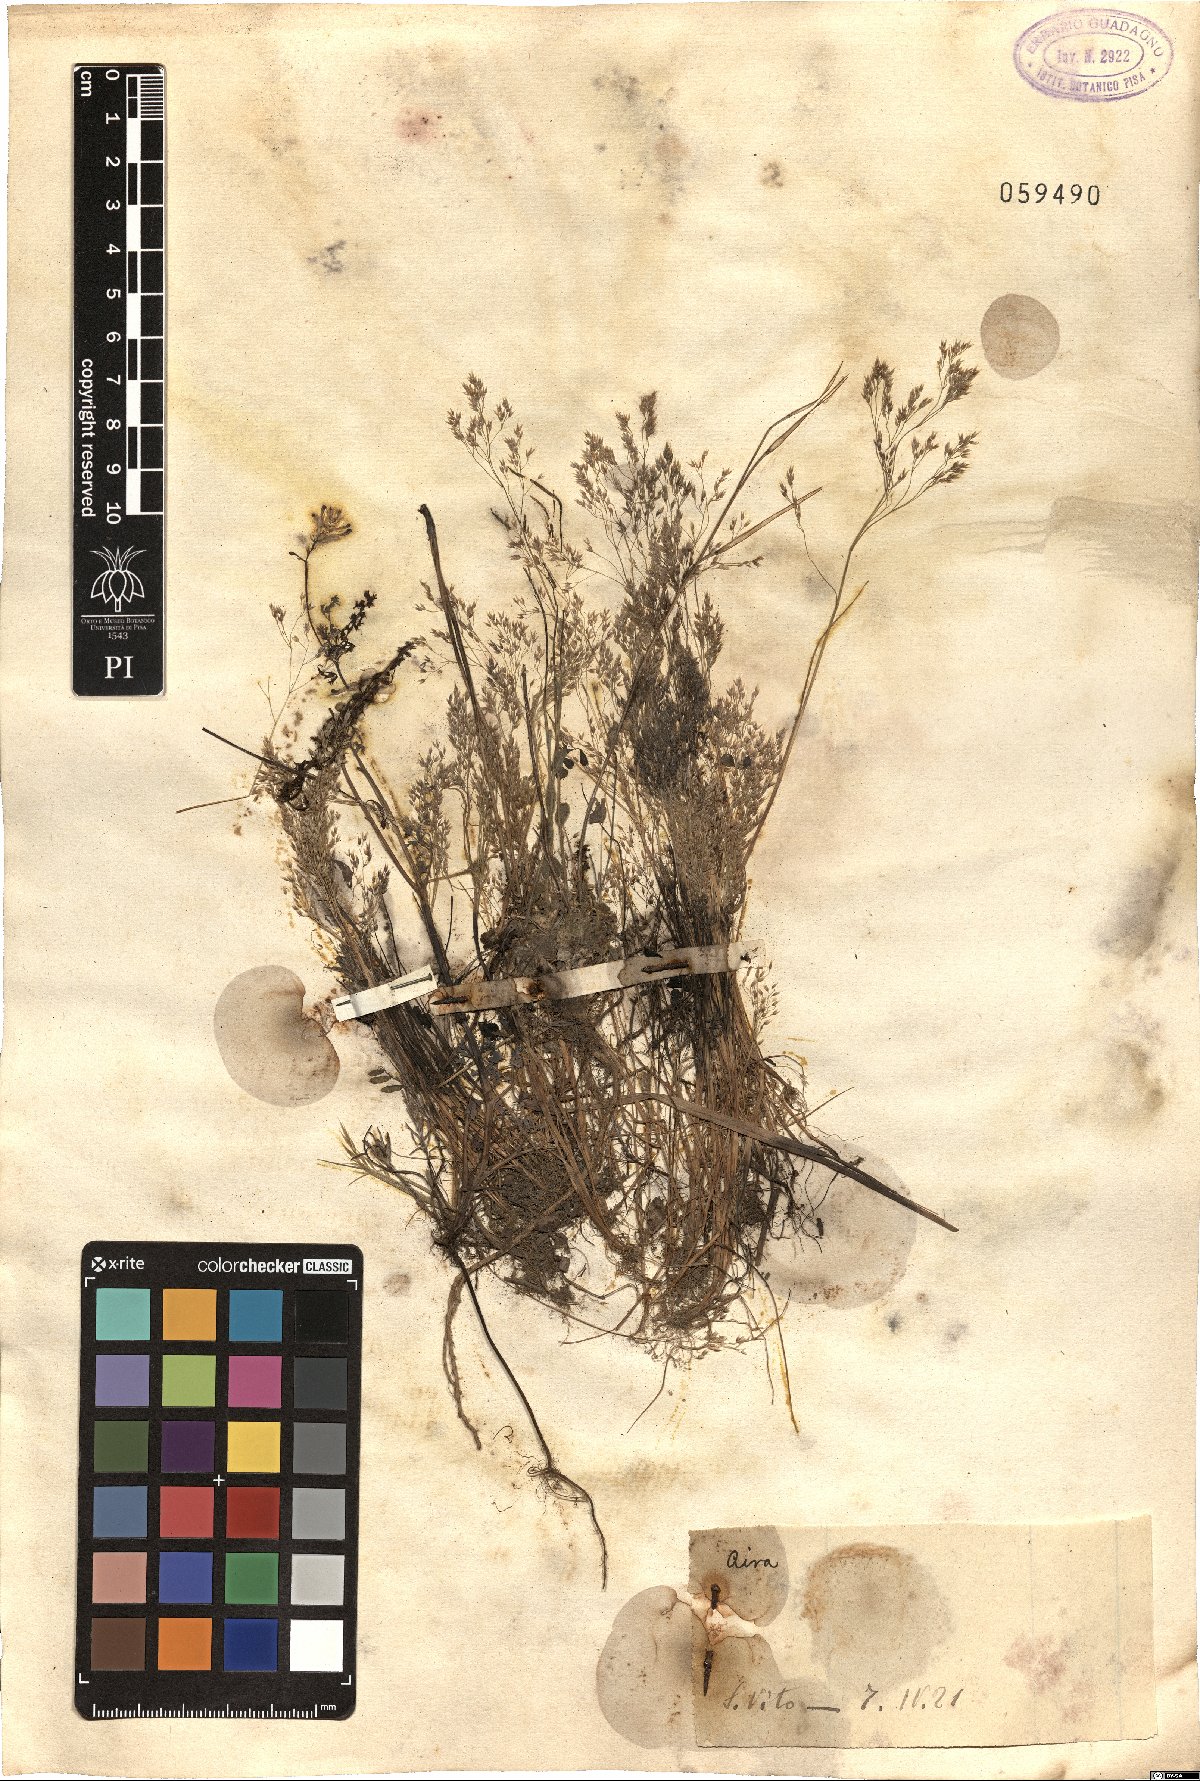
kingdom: Plantae
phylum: Tracheophyta
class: Liliopsida
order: Poales
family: Poaceae
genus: Aira
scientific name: Aira
